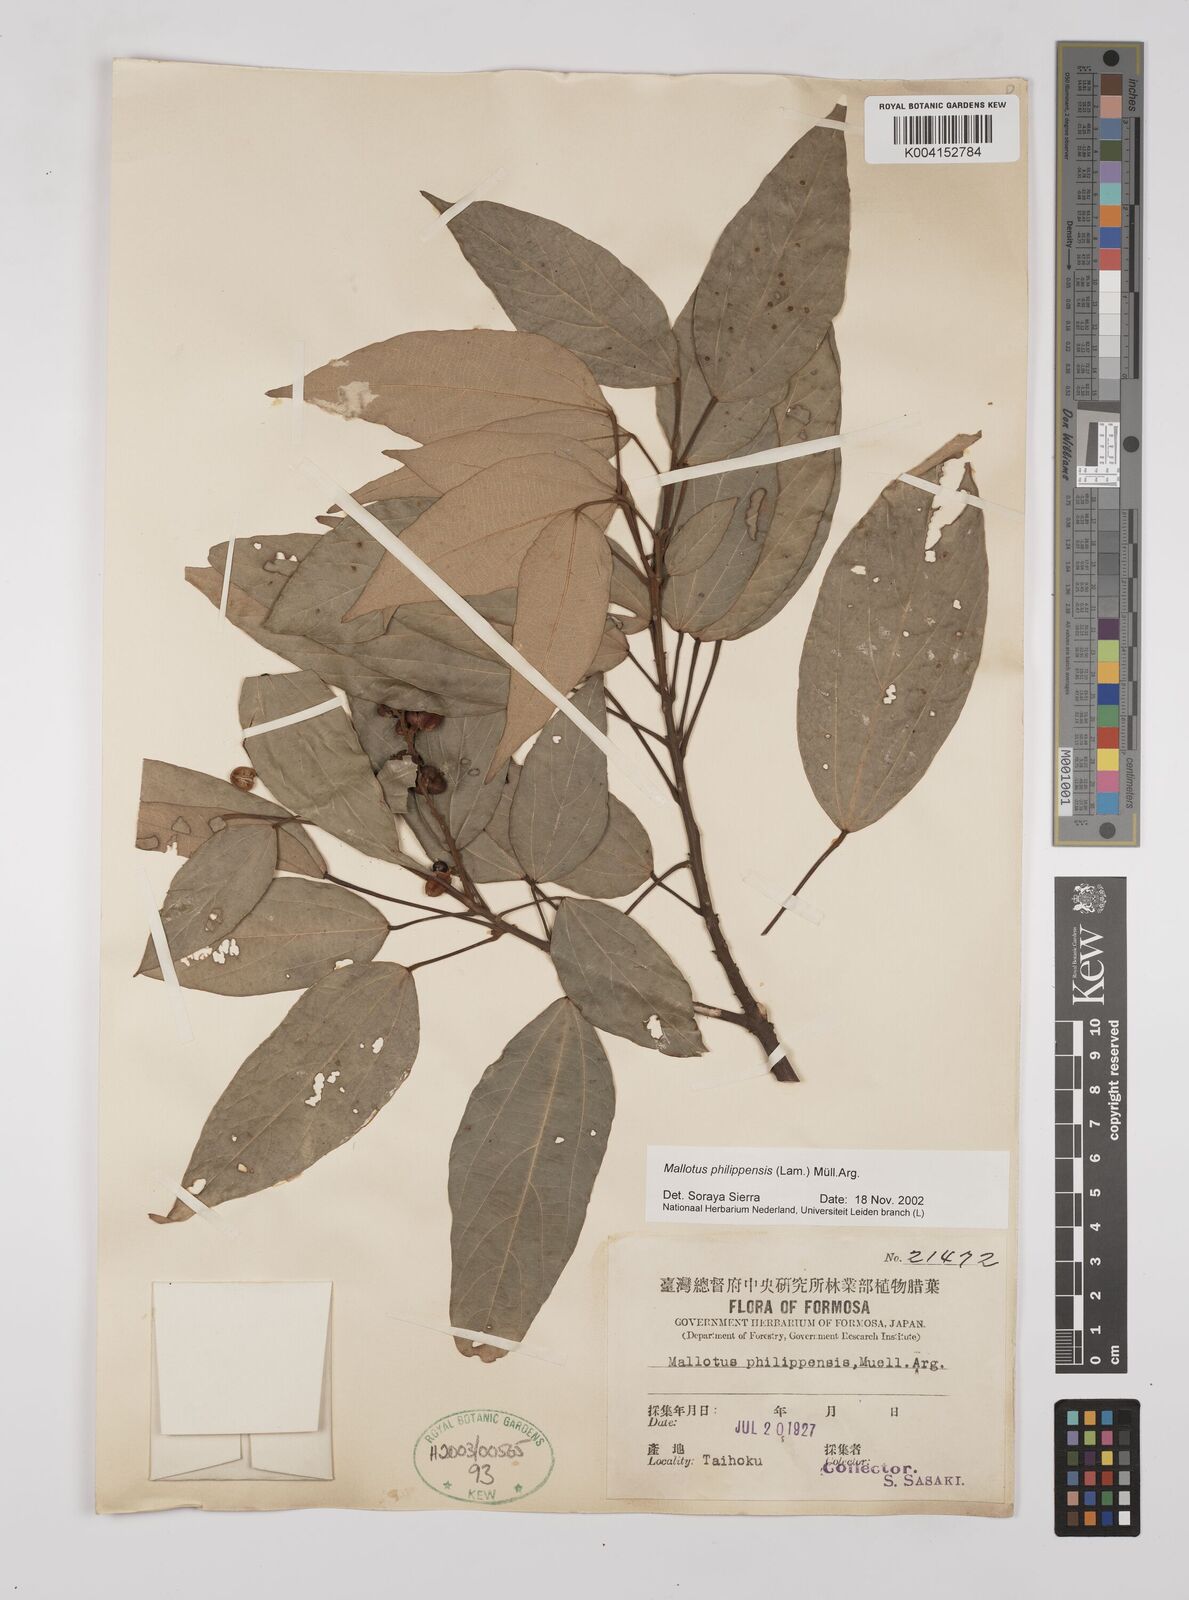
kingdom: Plantae
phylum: Tracheophyta
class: Magnoliopsida
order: Malpighiales
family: Euphorbiaceae
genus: Mallotus
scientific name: Mallotus philippensis
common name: Kamala tree
